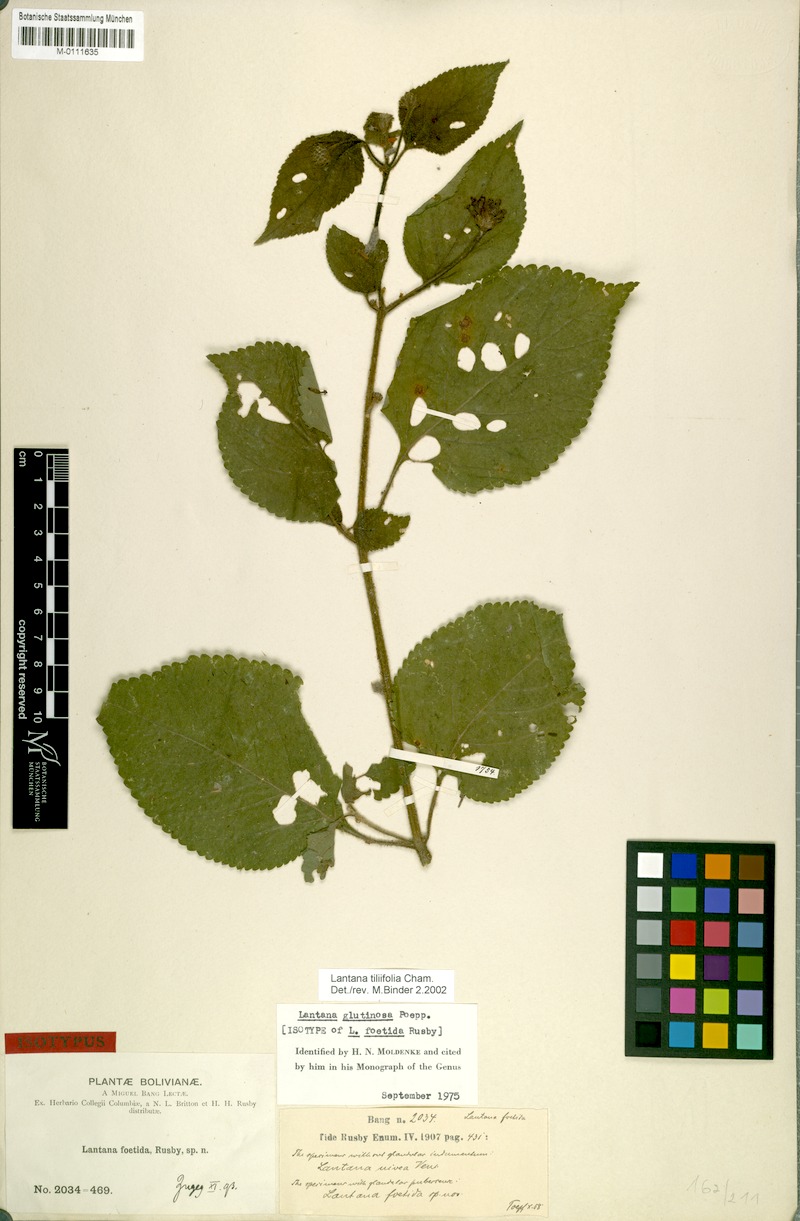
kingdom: Plantae
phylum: Tracheophyta
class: Magnoliopsida
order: Lamiales
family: Verbenaceae
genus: Lantana
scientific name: Lantana horrida
